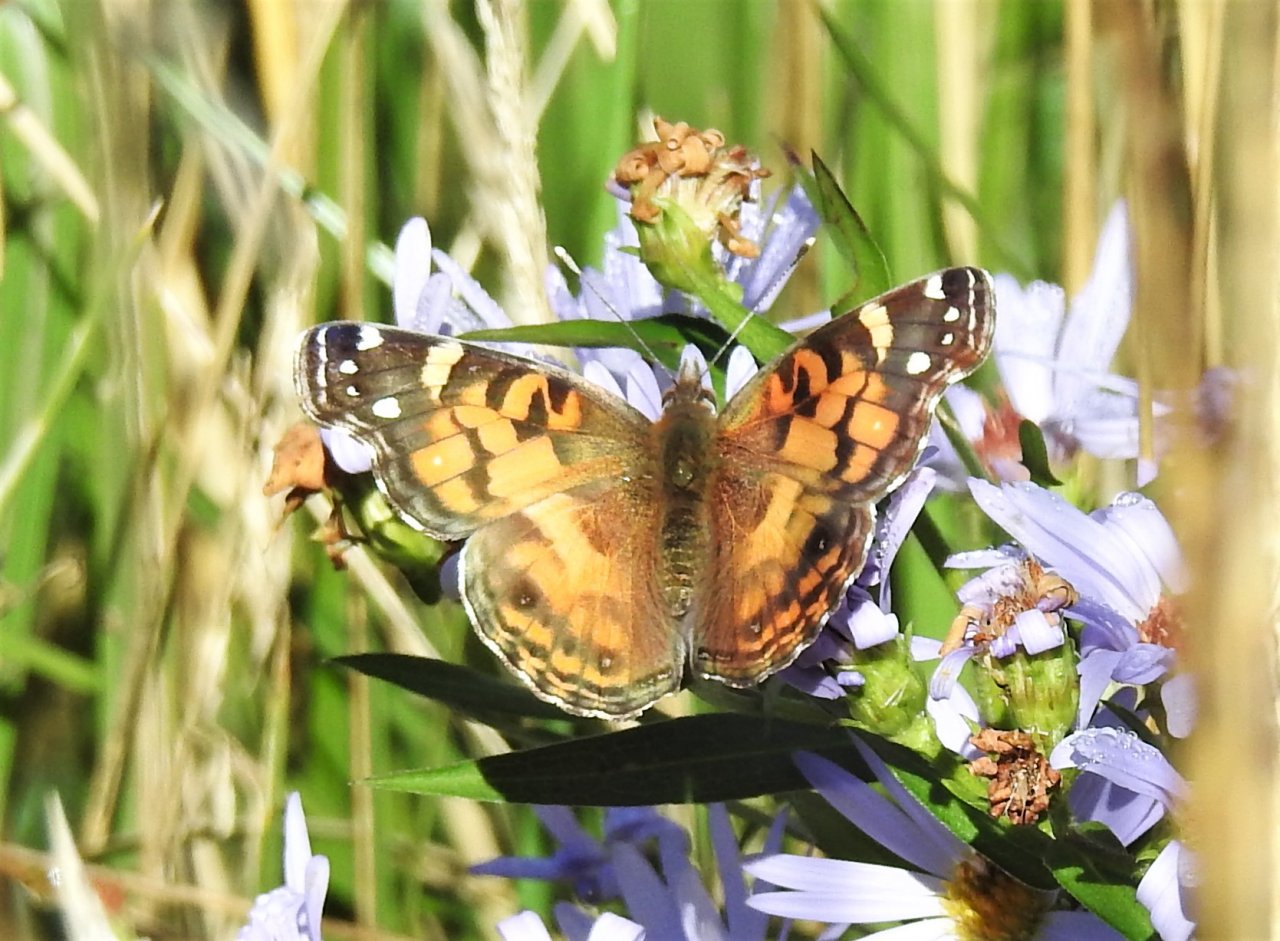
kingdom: Animalia
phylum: Arthropoda
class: Insecta
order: Lepidoptera
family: Nymphalidae
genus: Vanessa
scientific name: Vanessa virginiensis
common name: American Lady
